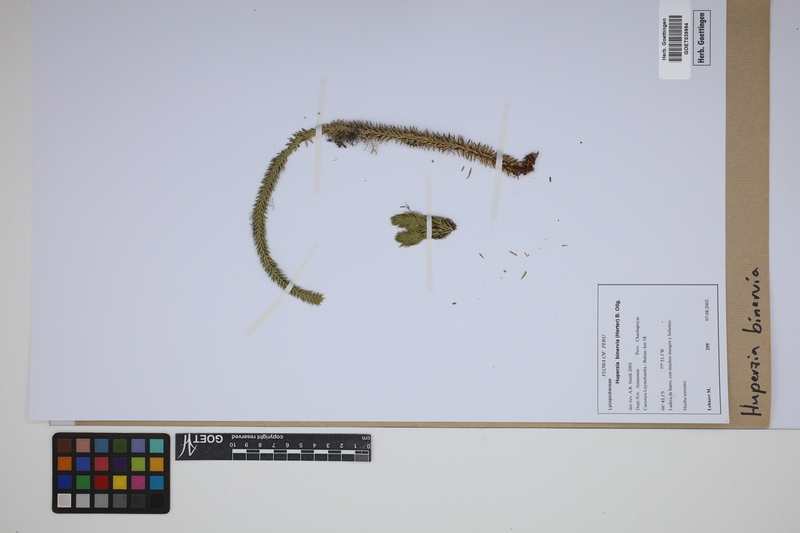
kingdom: Plantae
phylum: Tracheophyta
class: Lycopodiopsida
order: Lycopodiales
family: Lycopodiaceae
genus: Phlegmariurus
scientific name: Phlegmariurus binervius
